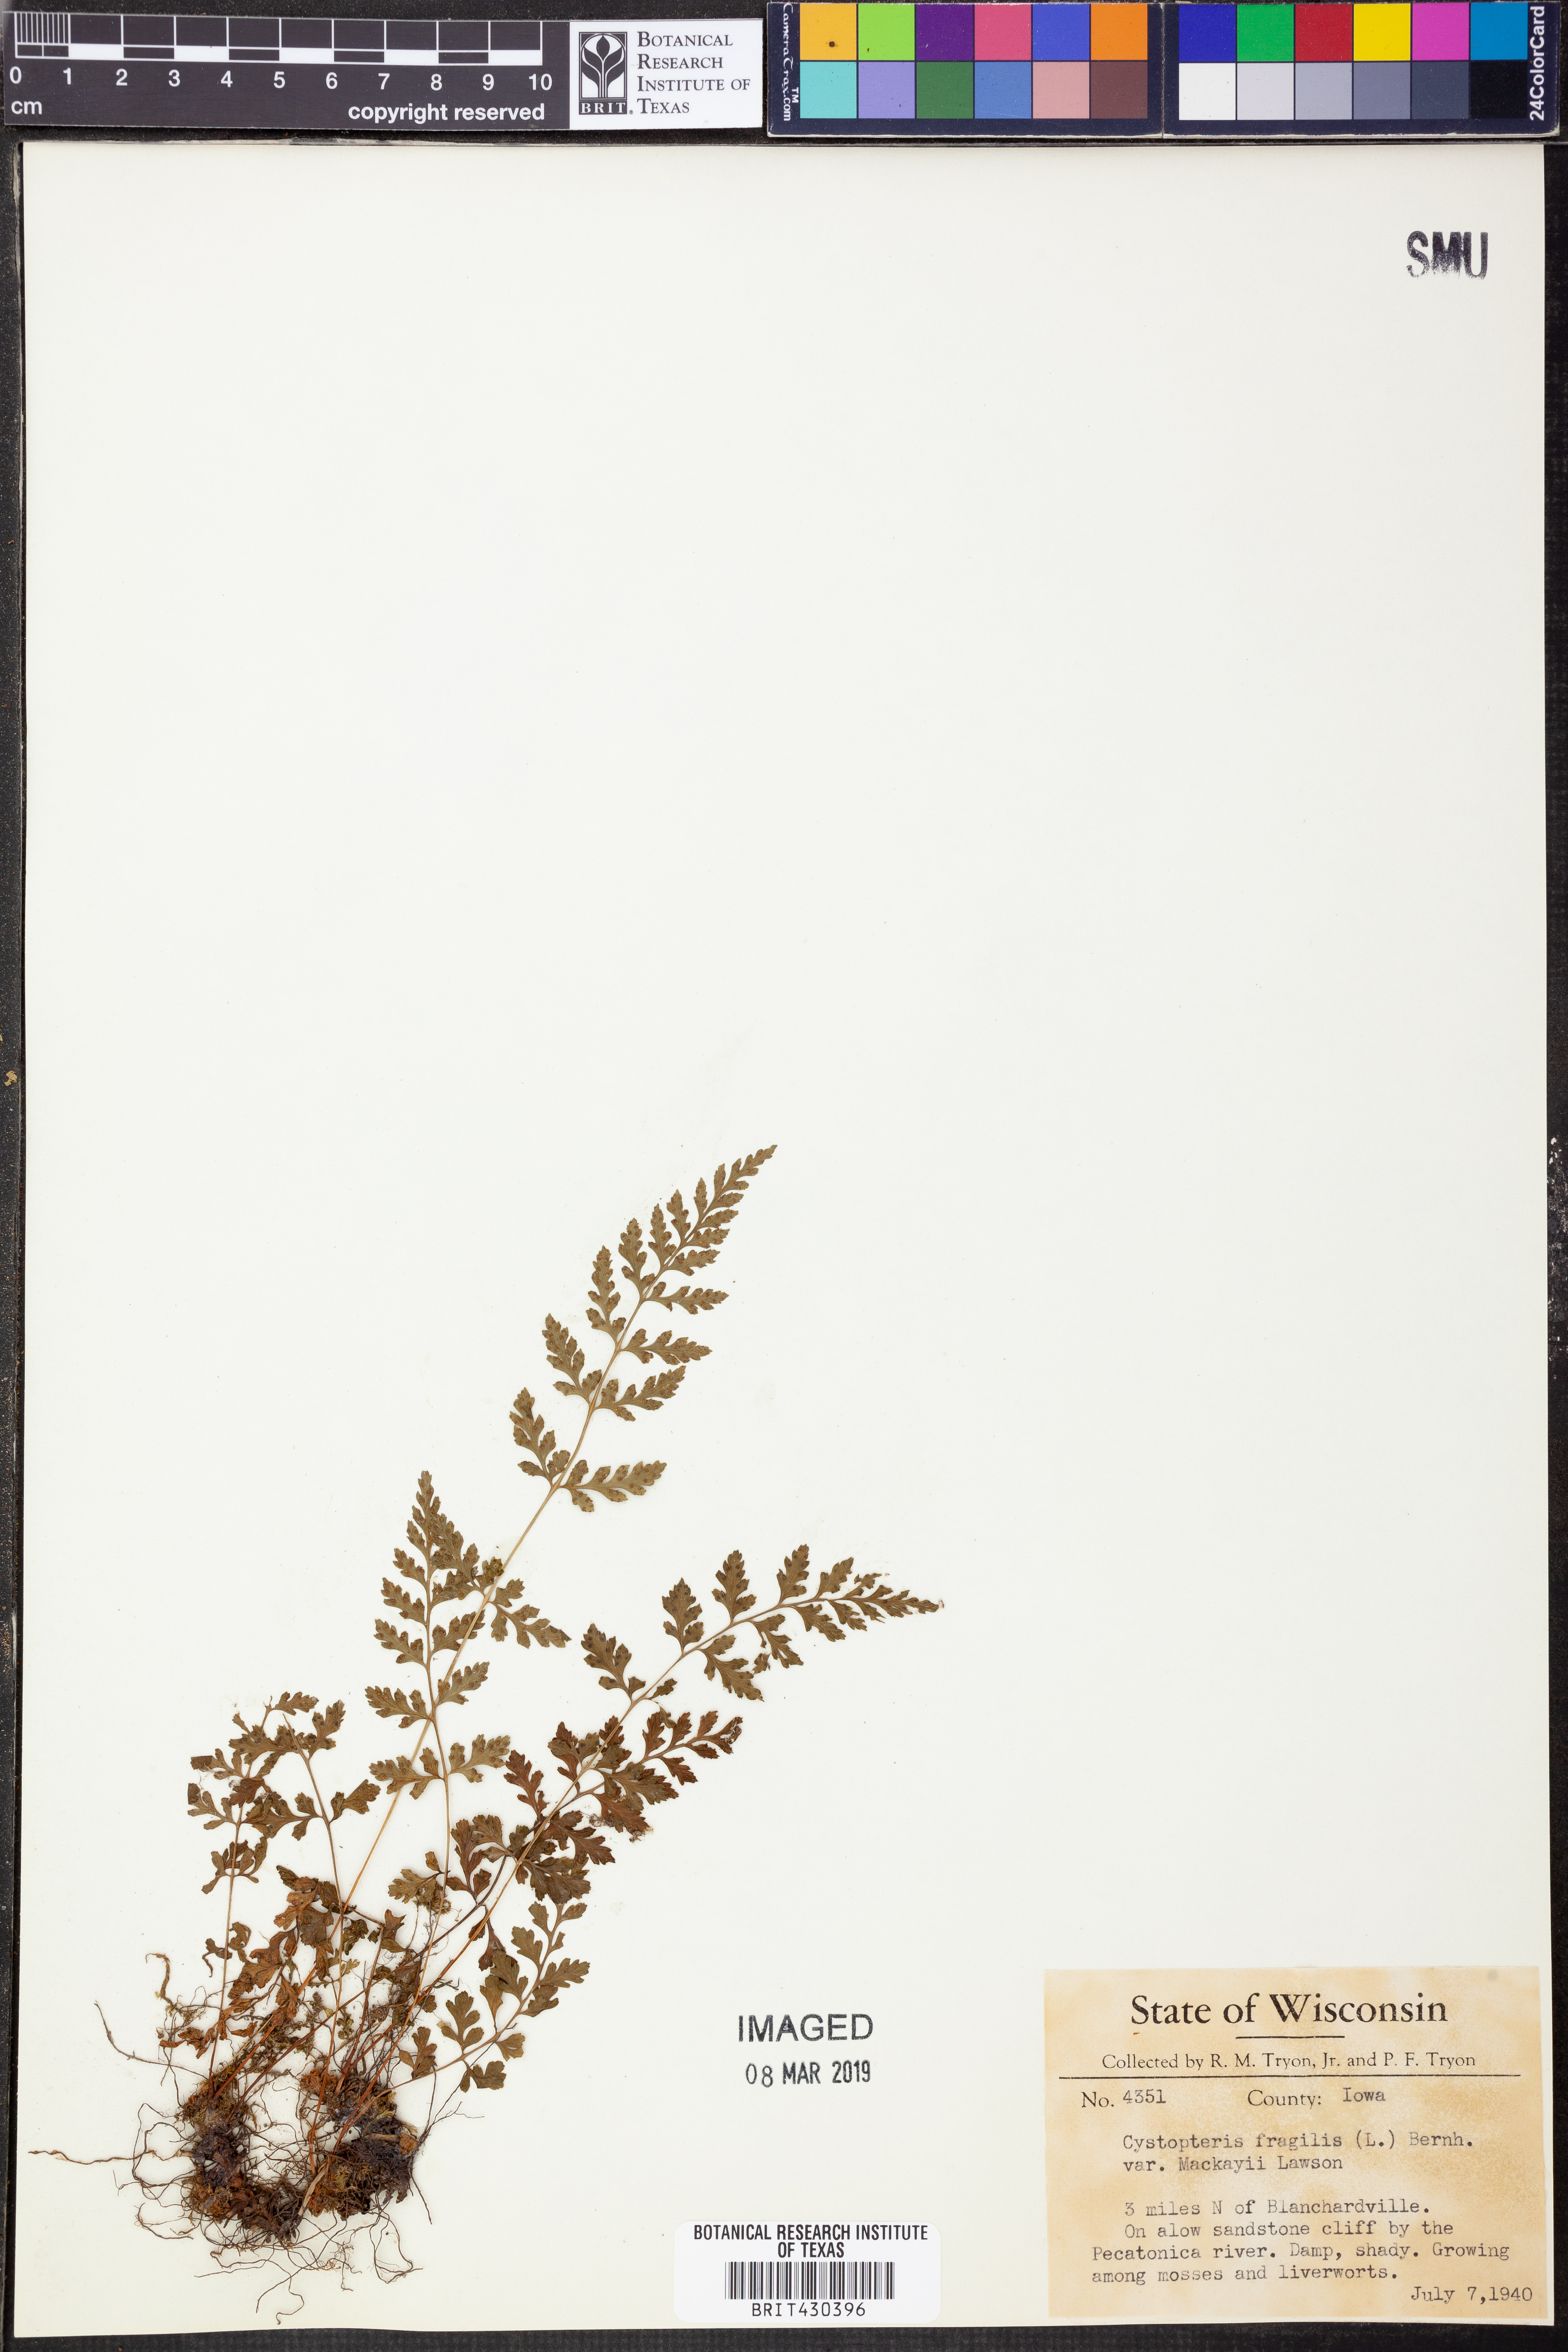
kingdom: Plantae
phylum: Tracheophyta
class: Polypodiopsida
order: Polypodiales
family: Cystopteridaceae
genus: Cystopteris
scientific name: Cystopteris tenuis
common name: Mackay's brittle fern
